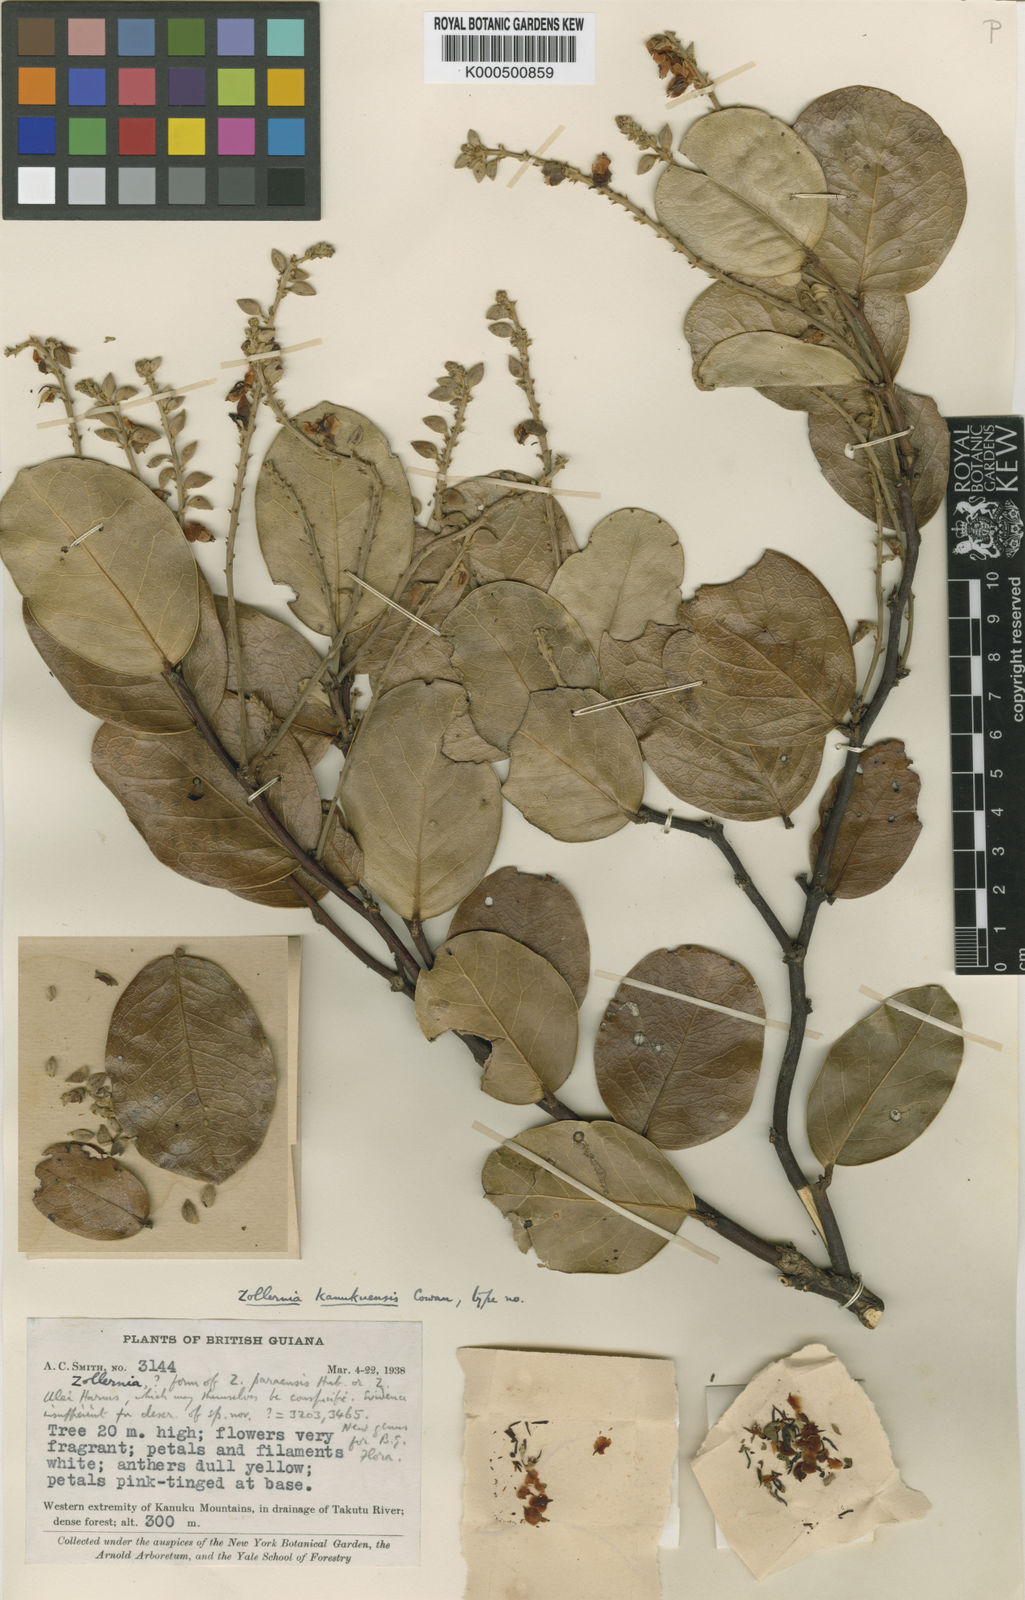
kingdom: Plantae
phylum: Tracheophyta
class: Magnoliopsida
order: Fabales
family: Fabaceae
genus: Zollernia
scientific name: Zollernia kanukuensis
